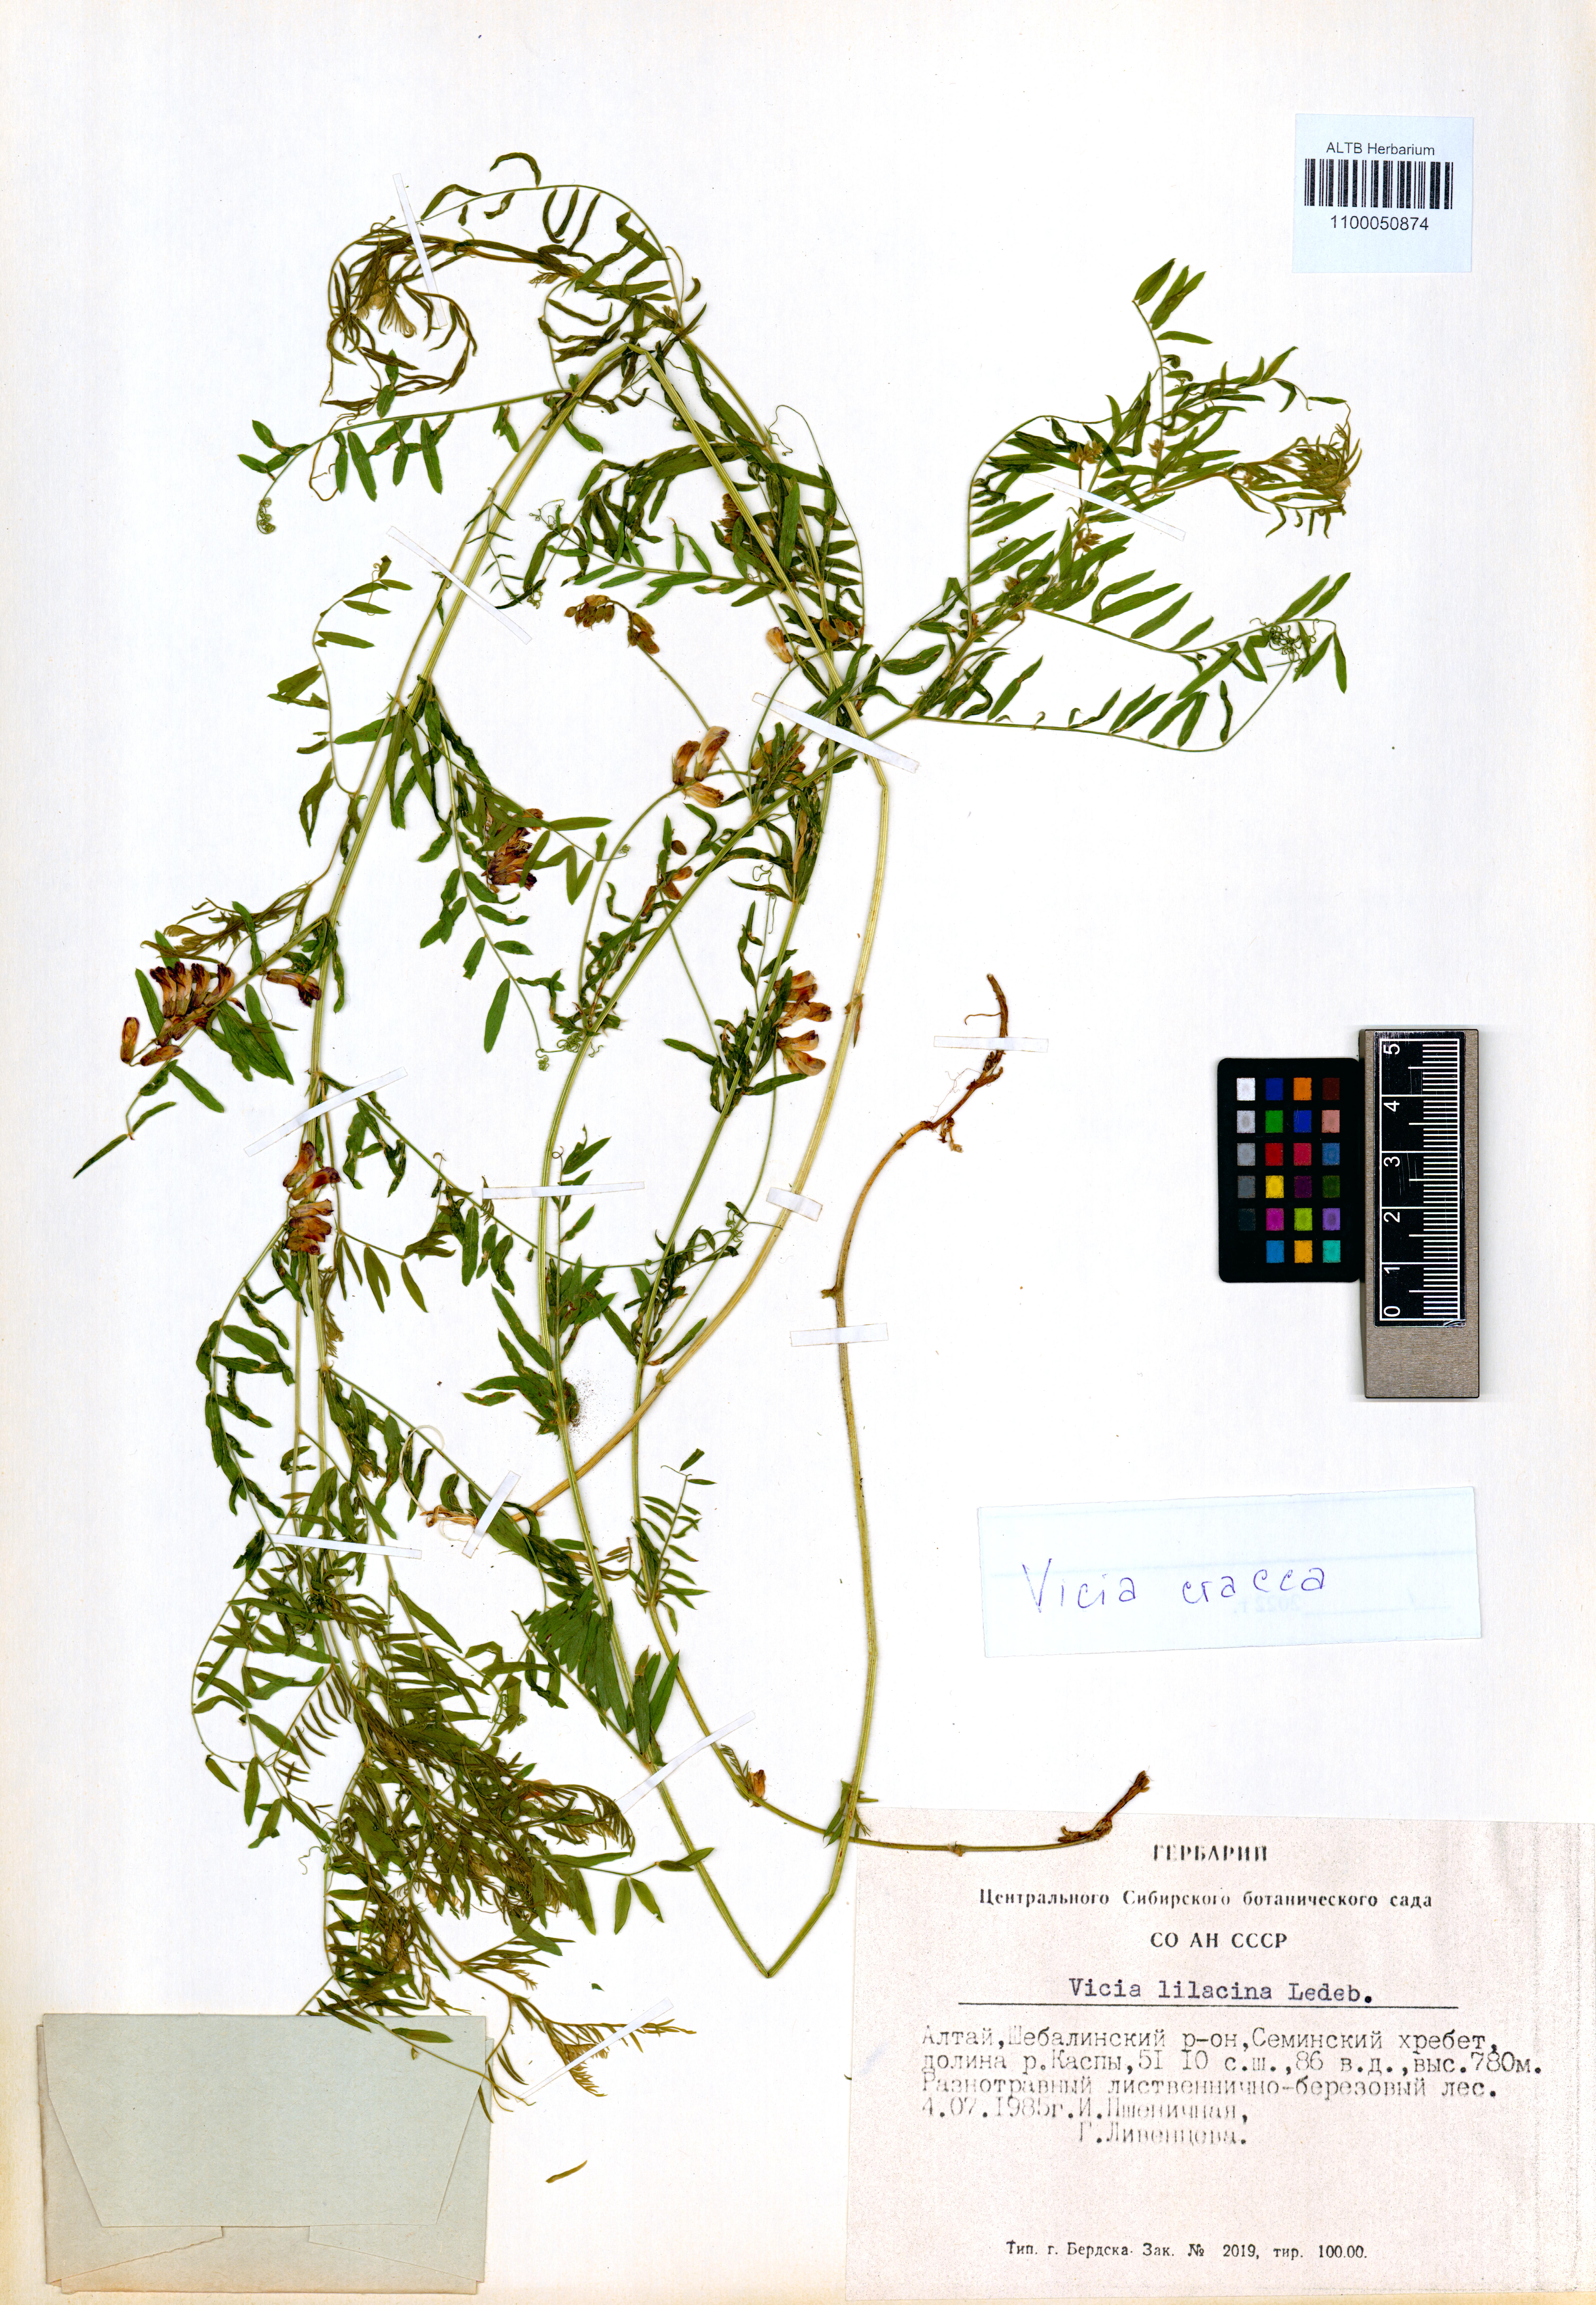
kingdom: Plantae
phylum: Tracheophyta
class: Magnoliopsida
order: Fabales
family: Fabaceae
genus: Vicia
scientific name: Vicia cracca
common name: Bird vetch
